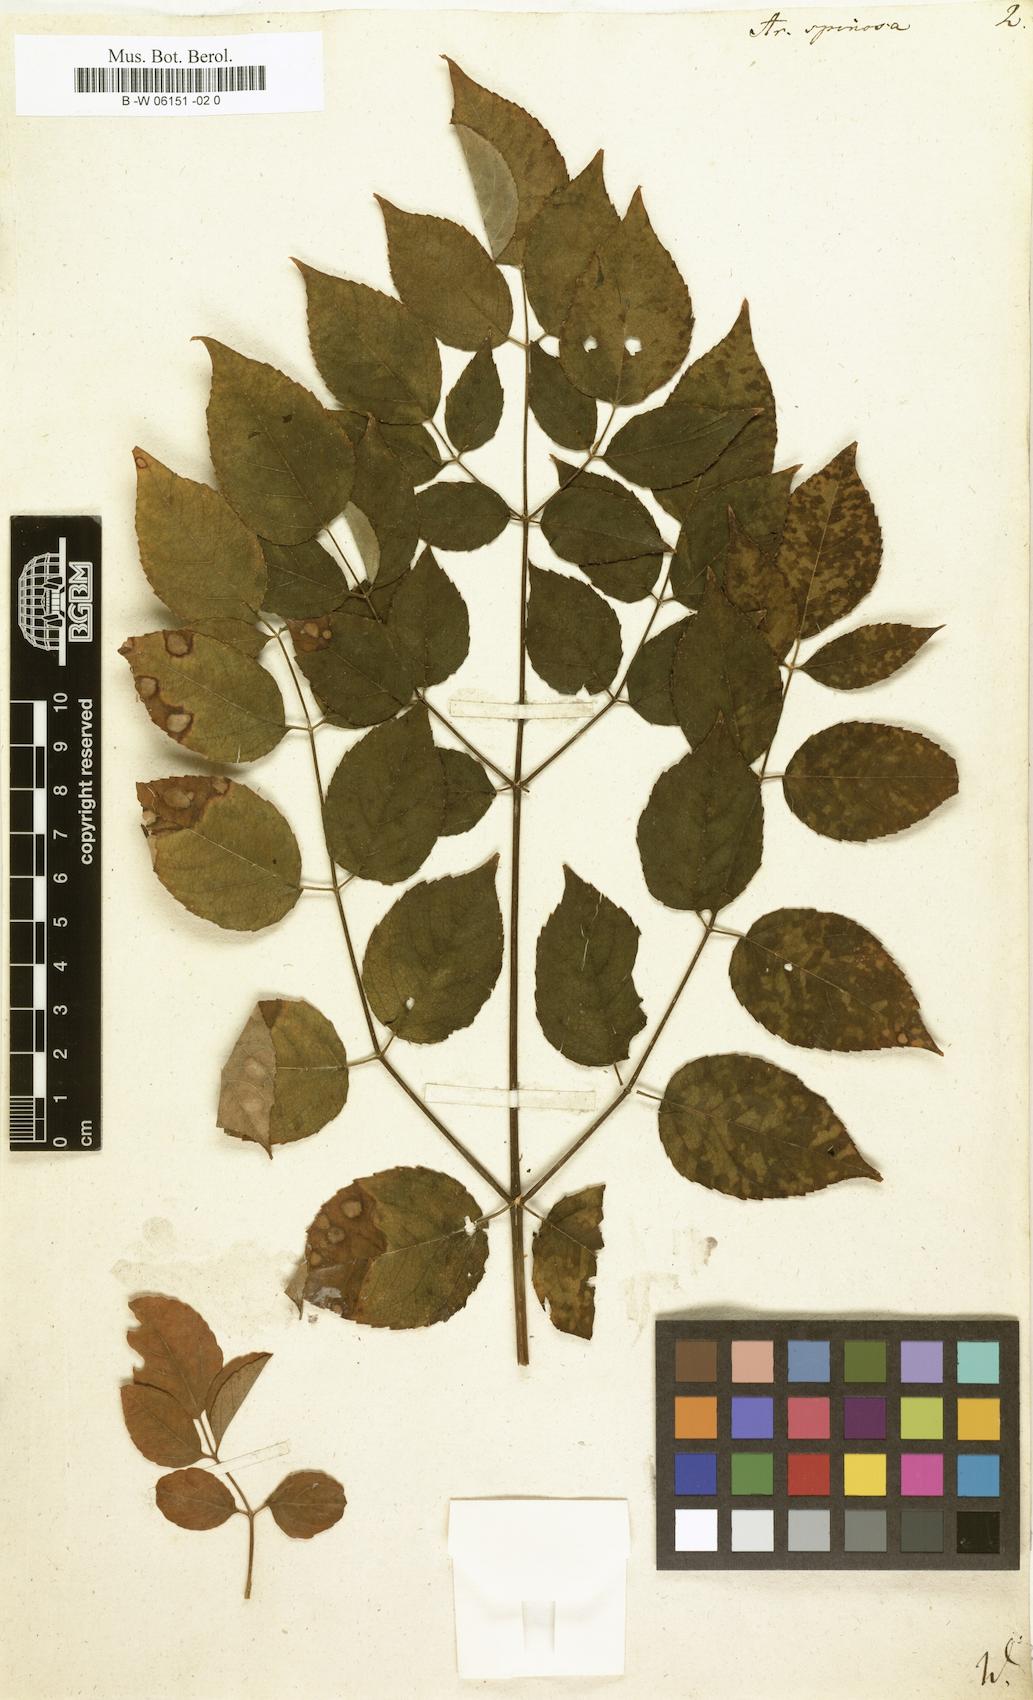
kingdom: Plantae
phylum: Tracheophyta
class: Magnoliopsida
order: Apiales
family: Araliaceae
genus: Aralia
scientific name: Aralia spinosa
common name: Hercules'-club
